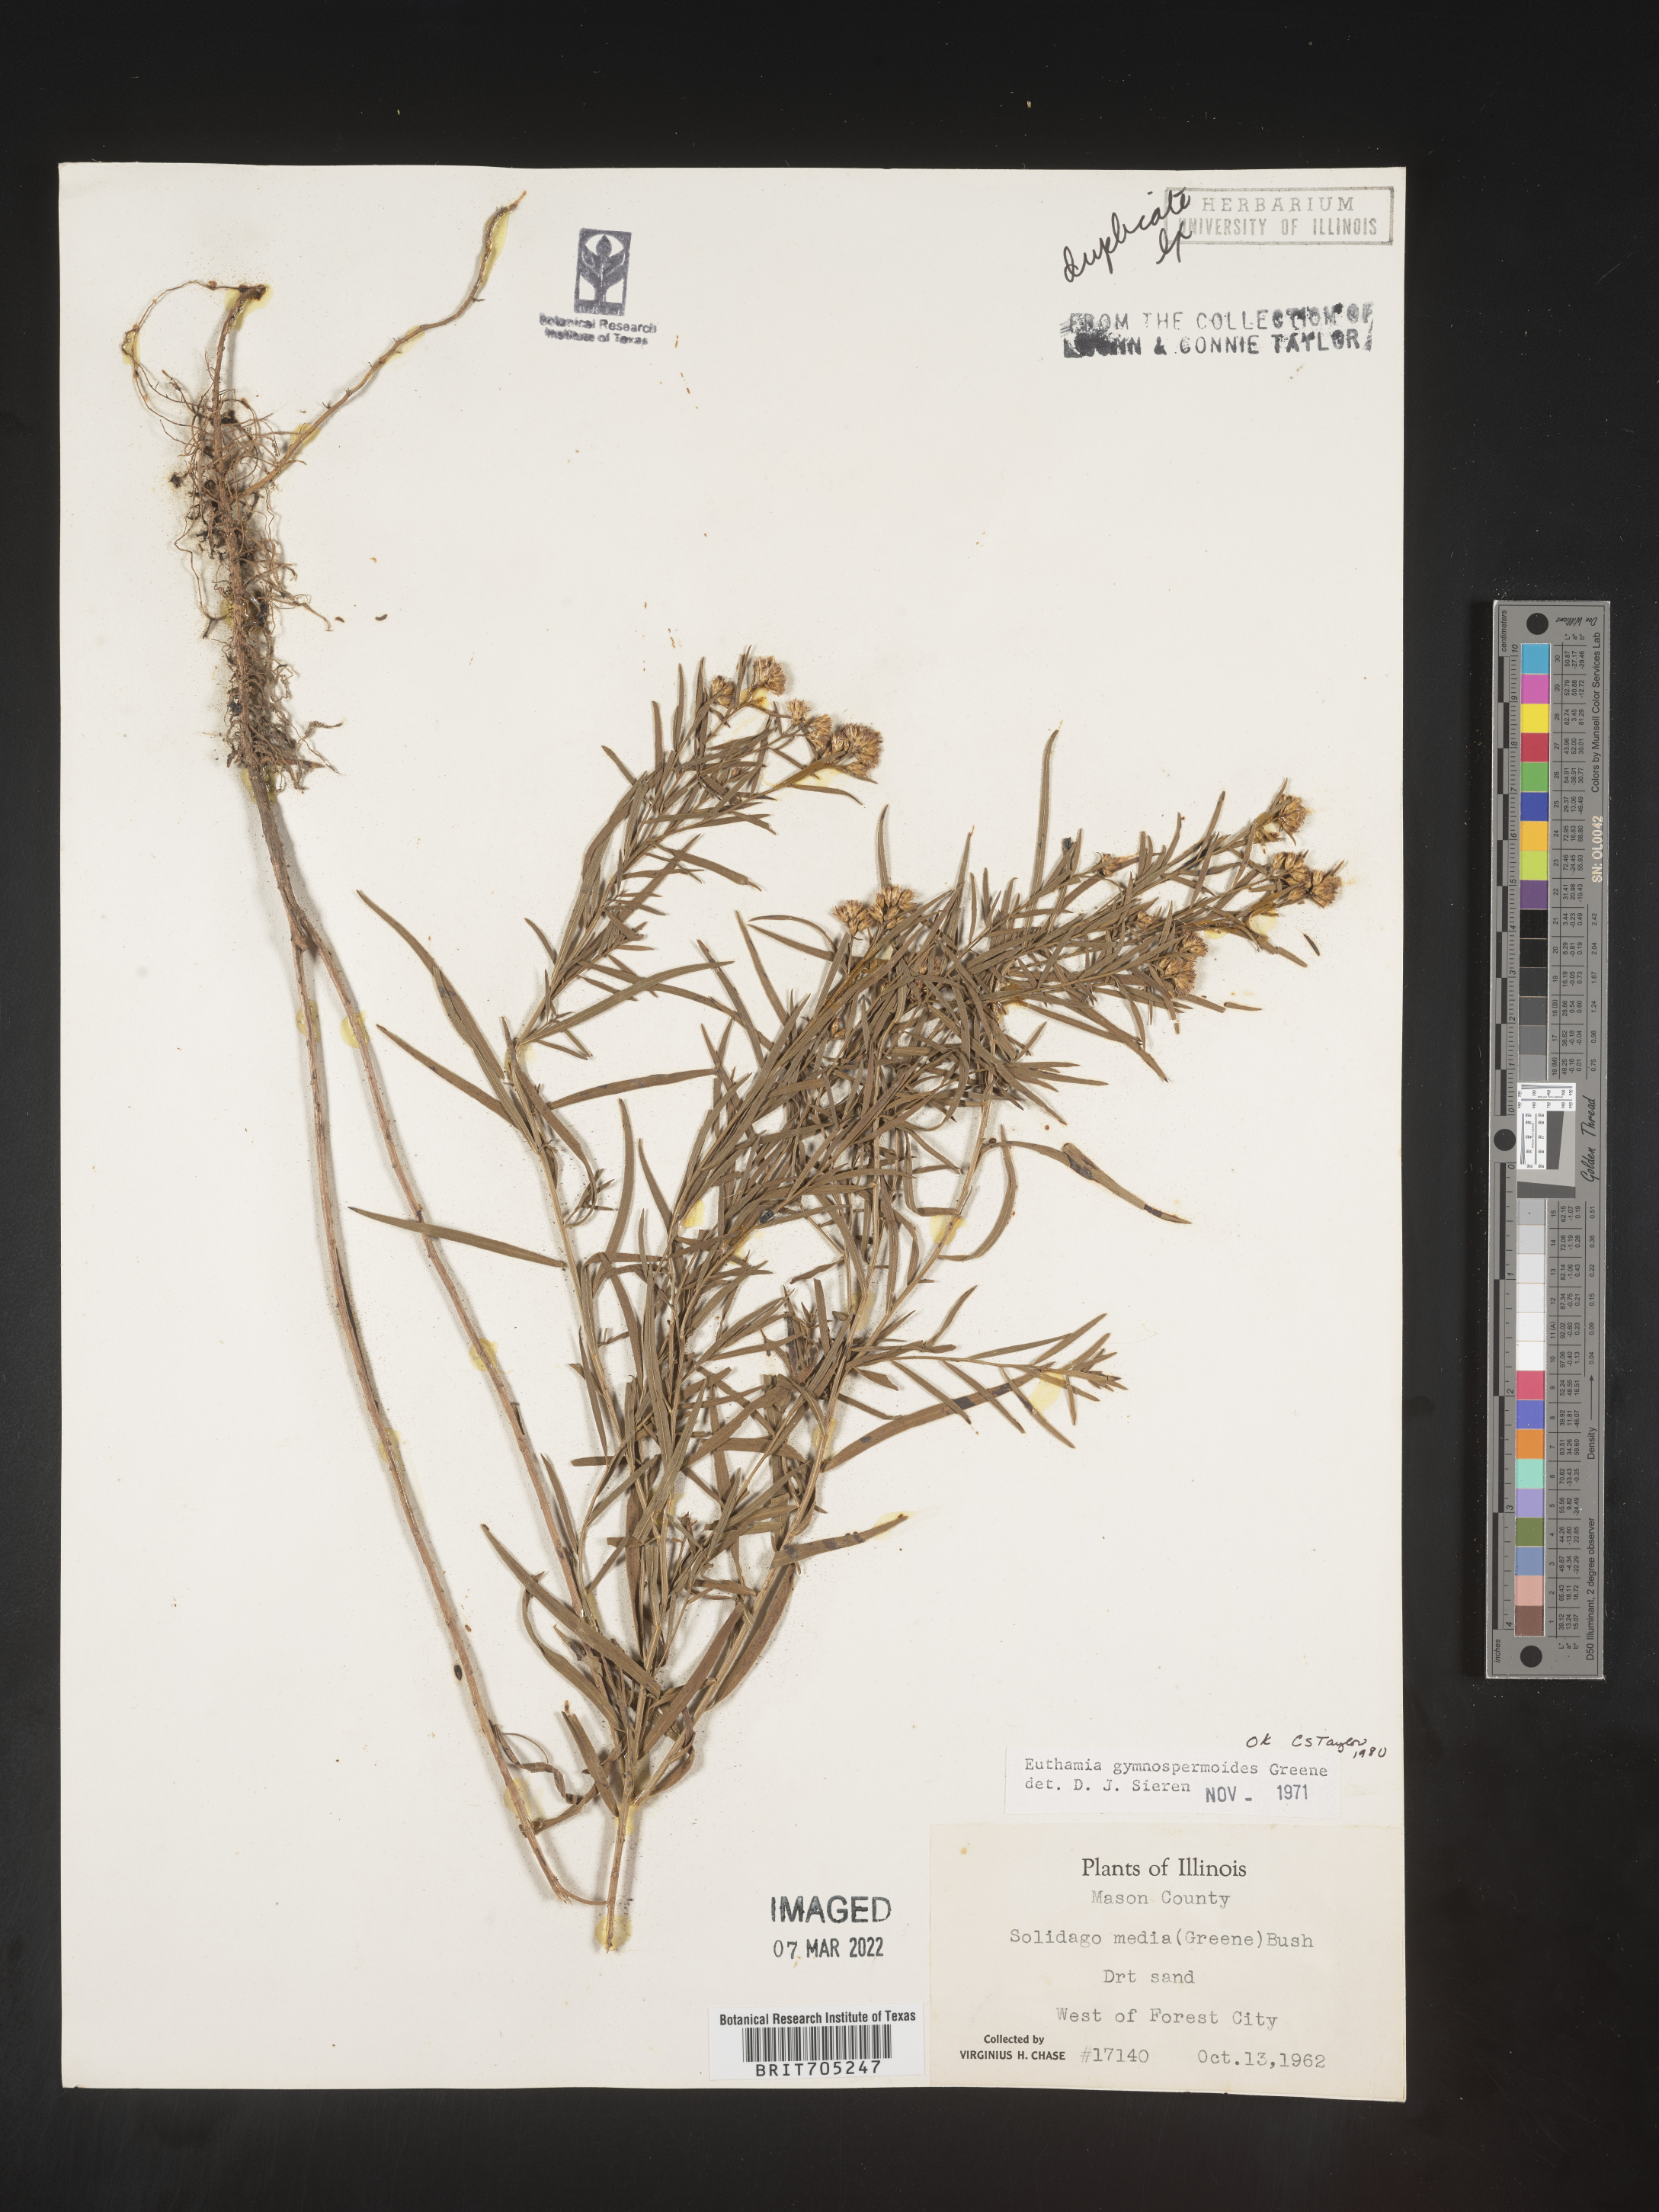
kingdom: Plantae
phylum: Tracheophyta
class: Magnoliopsida
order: Asterales
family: Asteraceae
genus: Euthamia
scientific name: Euthamia gymnospermoides
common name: Great plains goldentop
